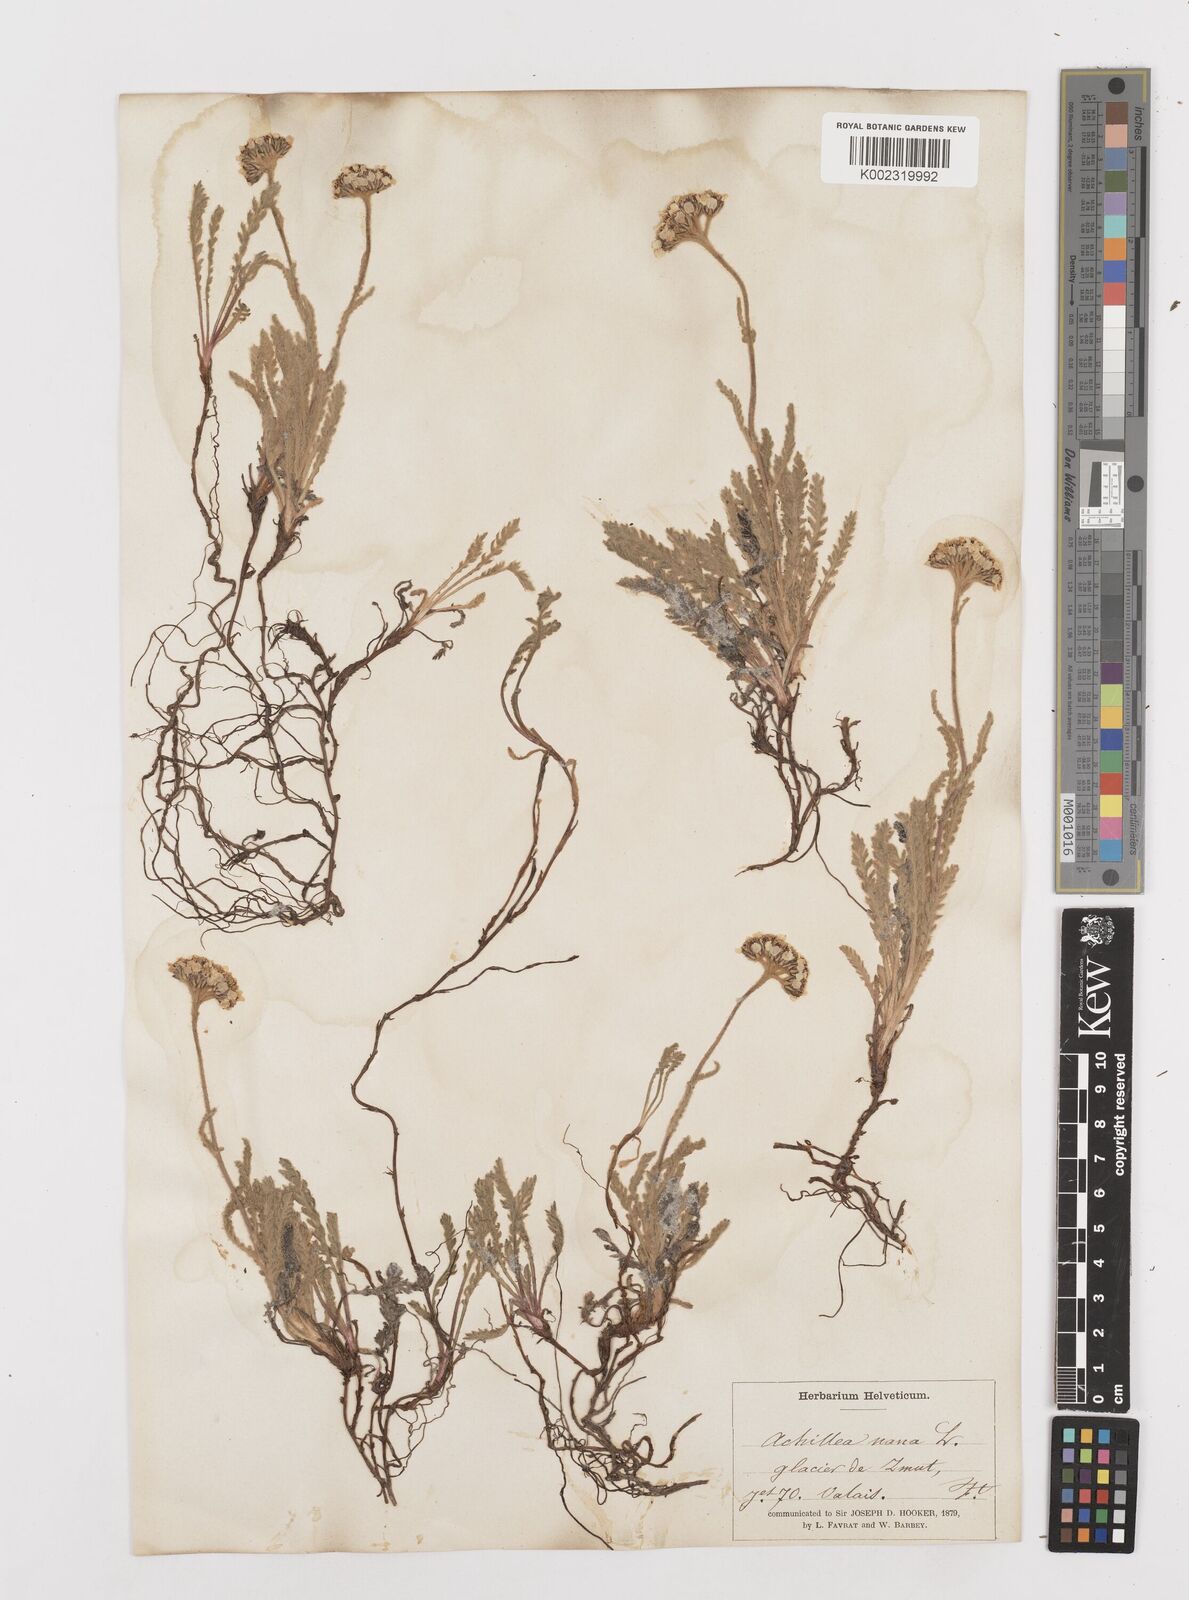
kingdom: Plantae
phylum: Tracheophyta
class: Magnoliopsida
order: Asterales
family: Asteraceae
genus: Achillea
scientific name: Achillea nana
